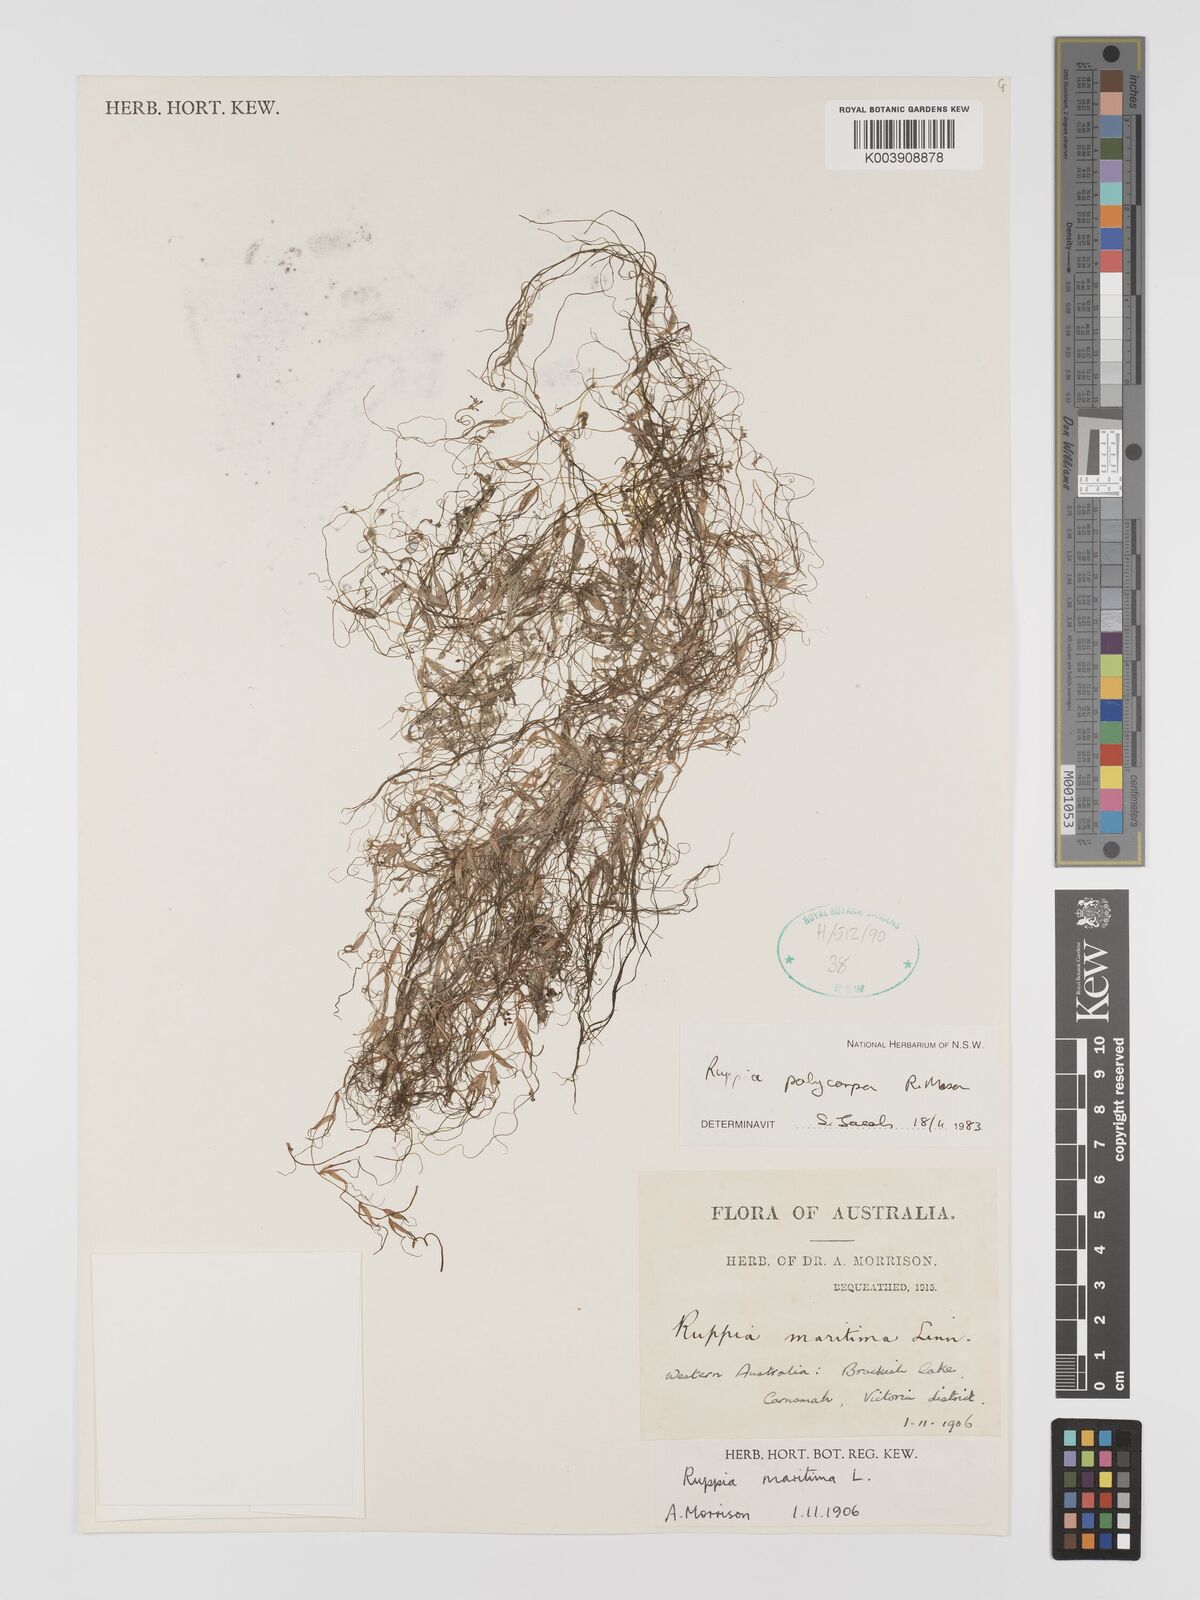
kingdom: Plantae
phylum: Tracheophyta
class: Liliopsida
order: Alismatales
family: Ruppiaceae
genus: Ruppia
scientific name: Ruppia polycarpa
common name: Species code: rp
